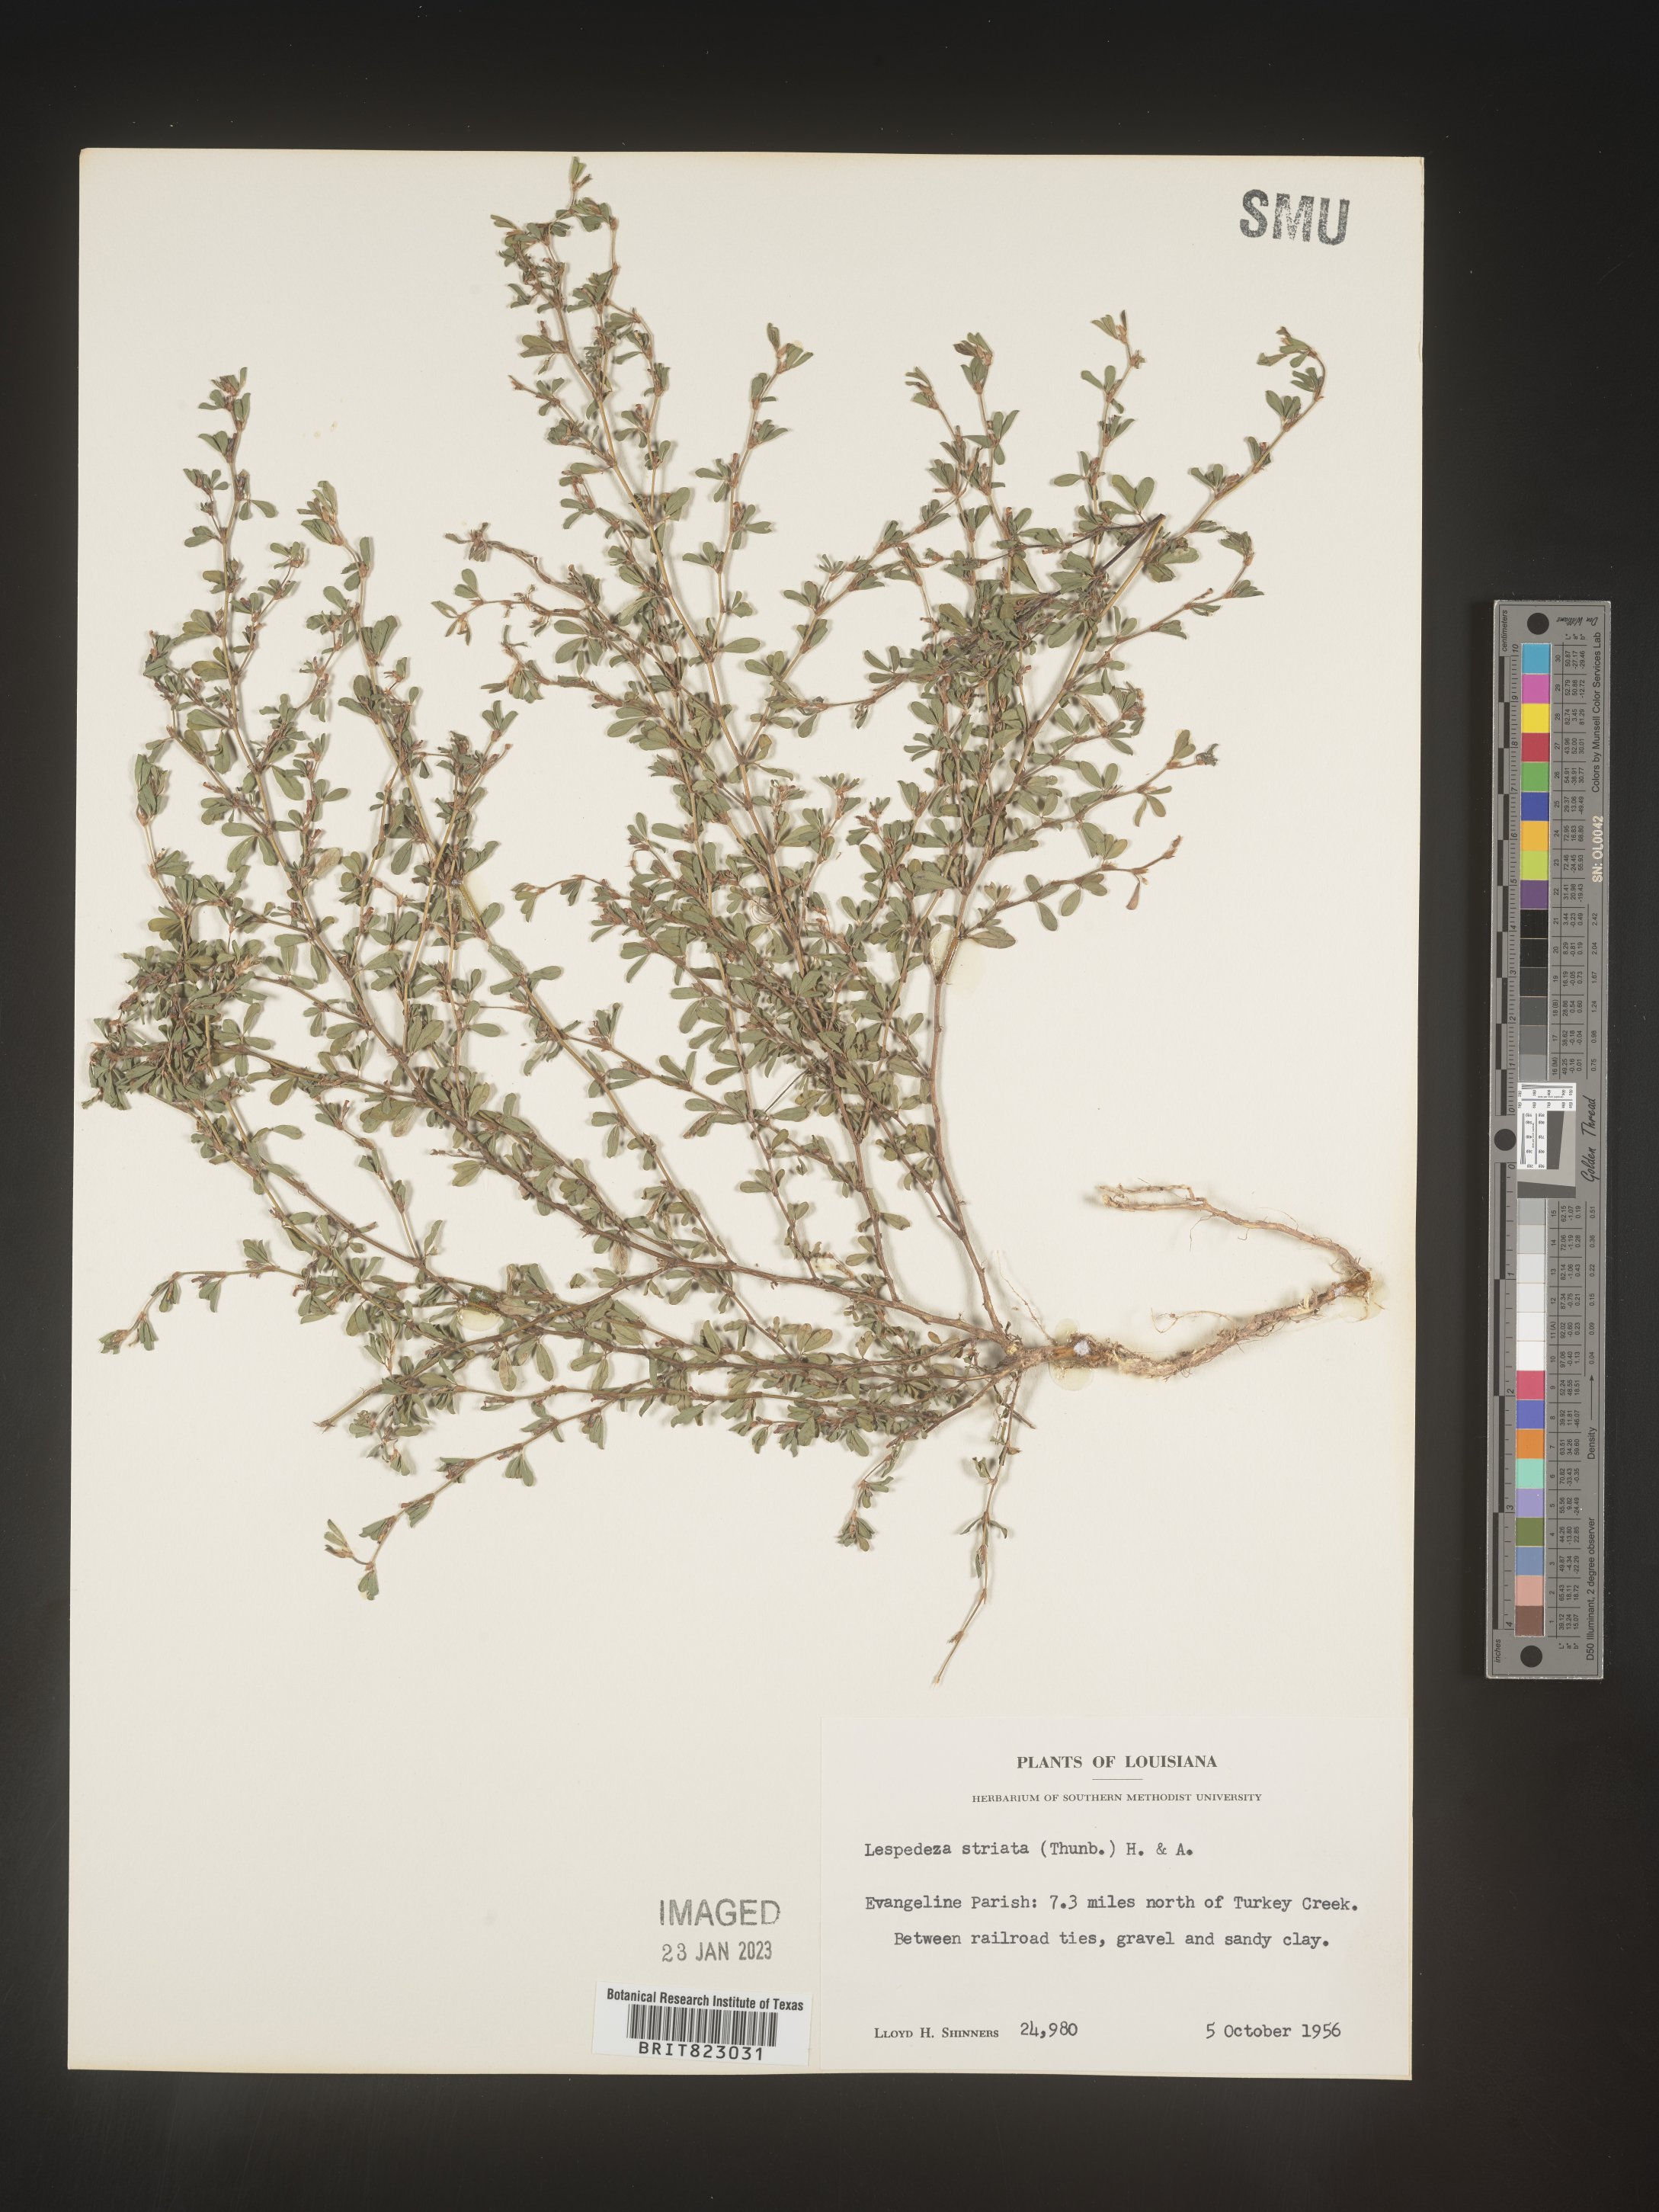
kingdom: Plantae
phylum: Tracheophyta
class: Magnoliopsida
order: Fabales
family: Fabaceae
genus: Kummerowia
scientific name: Kummerowia striata
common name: Japanese clover
